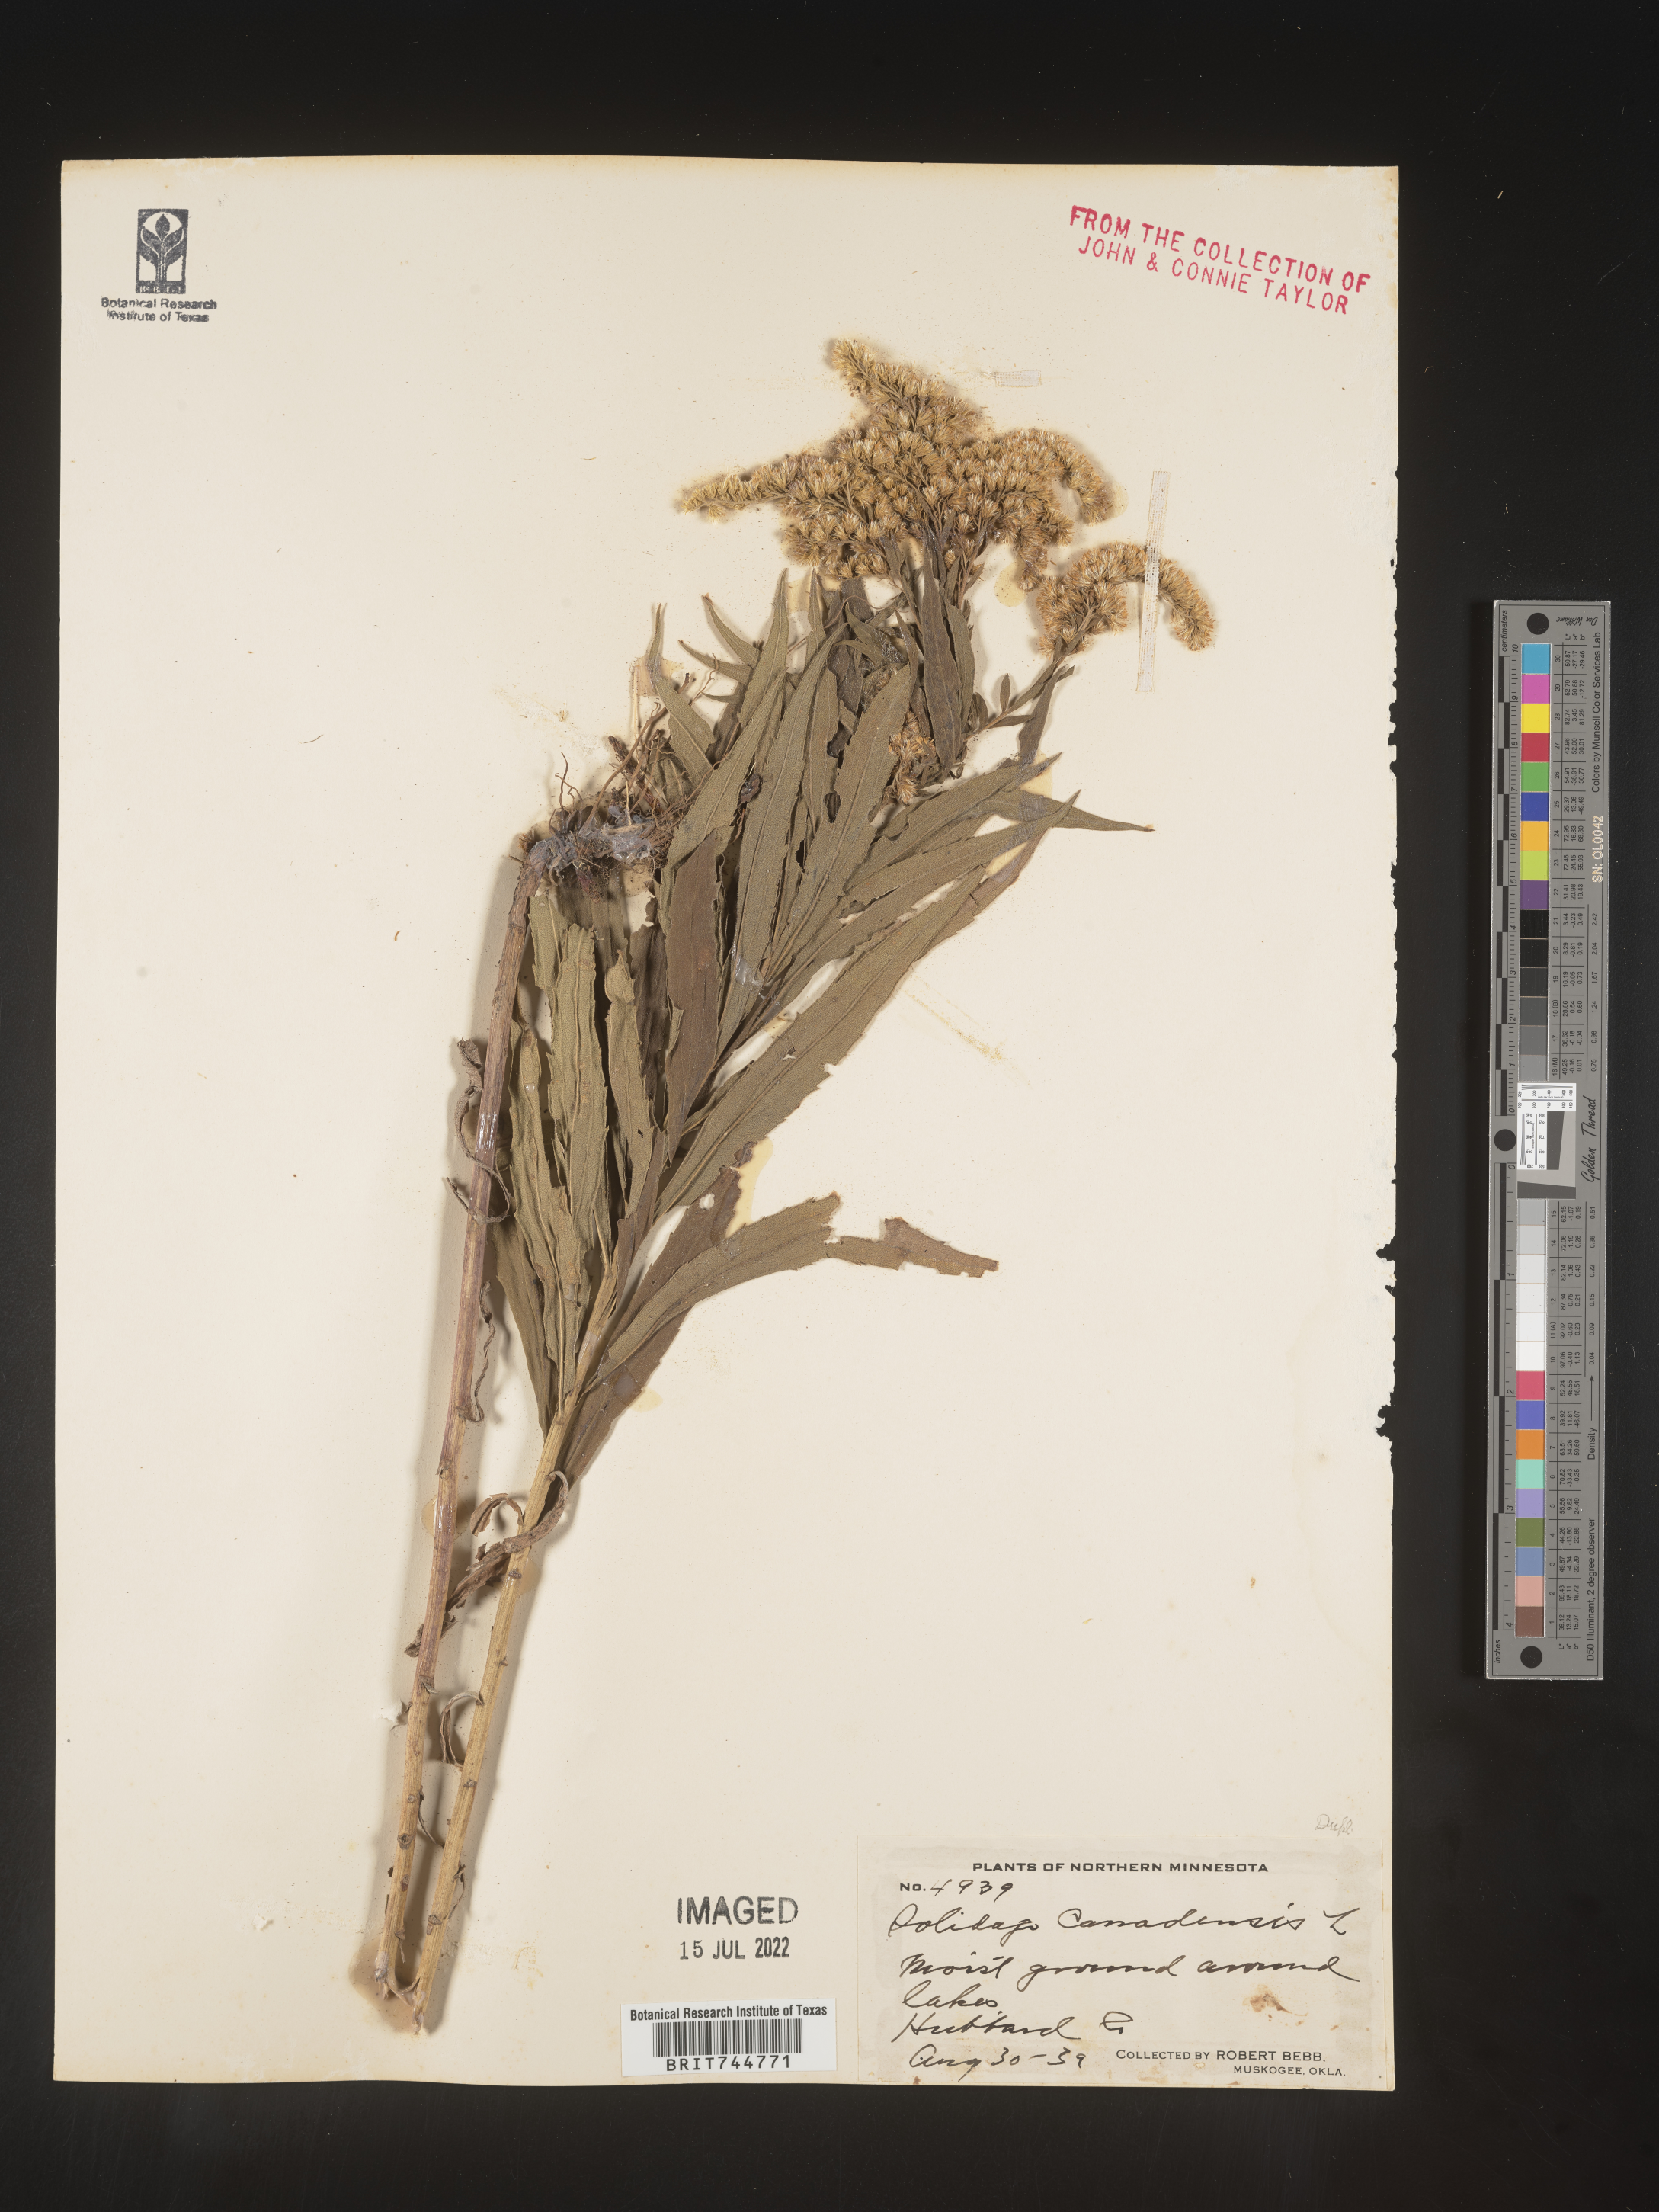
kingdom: Plantae
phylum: Tracheophyta
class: Magnoliopsida
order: Asterales
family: Asteraceae
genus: Solidago
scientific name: Solidago canadensis
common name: Canada goldenrod
